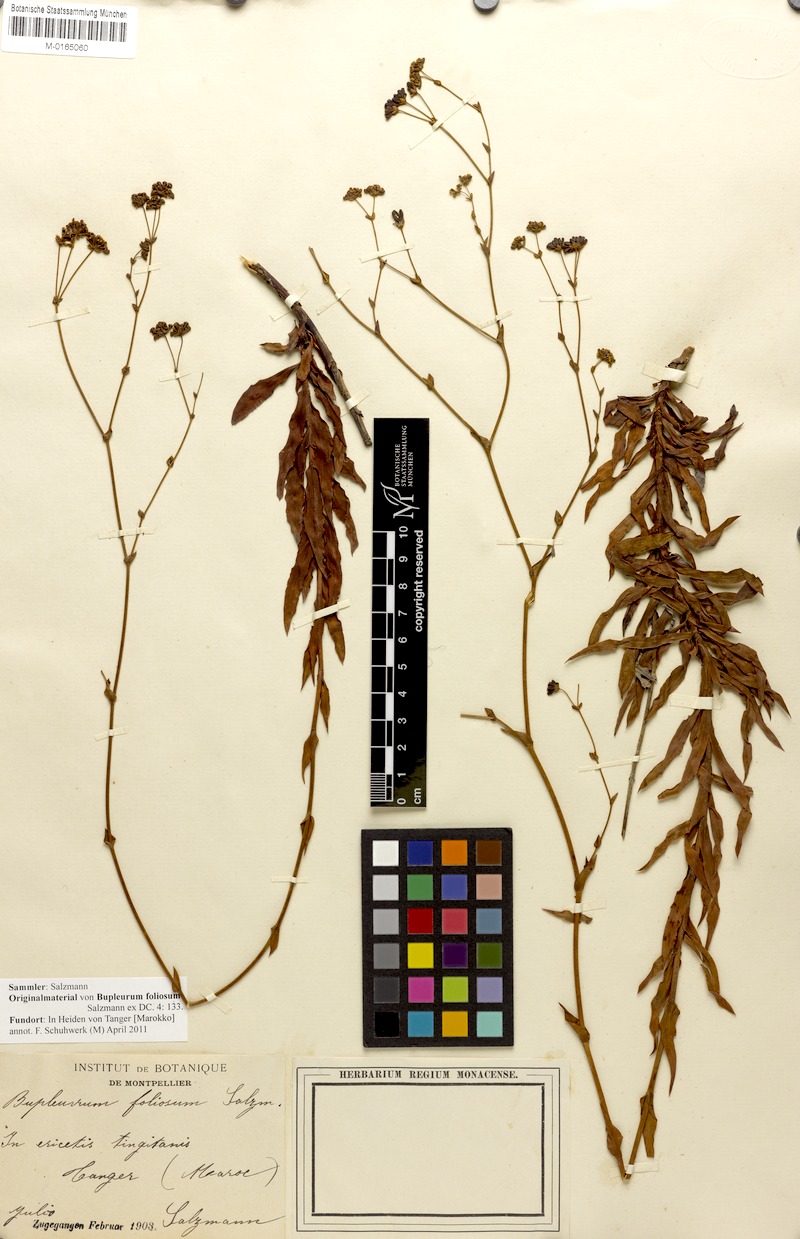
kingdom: Plantae
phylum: Tracheophyta
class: Magnoliopsida
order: Apiales
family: Apiaceae
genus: Bupleurum
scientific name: Bupleurum foliosum
